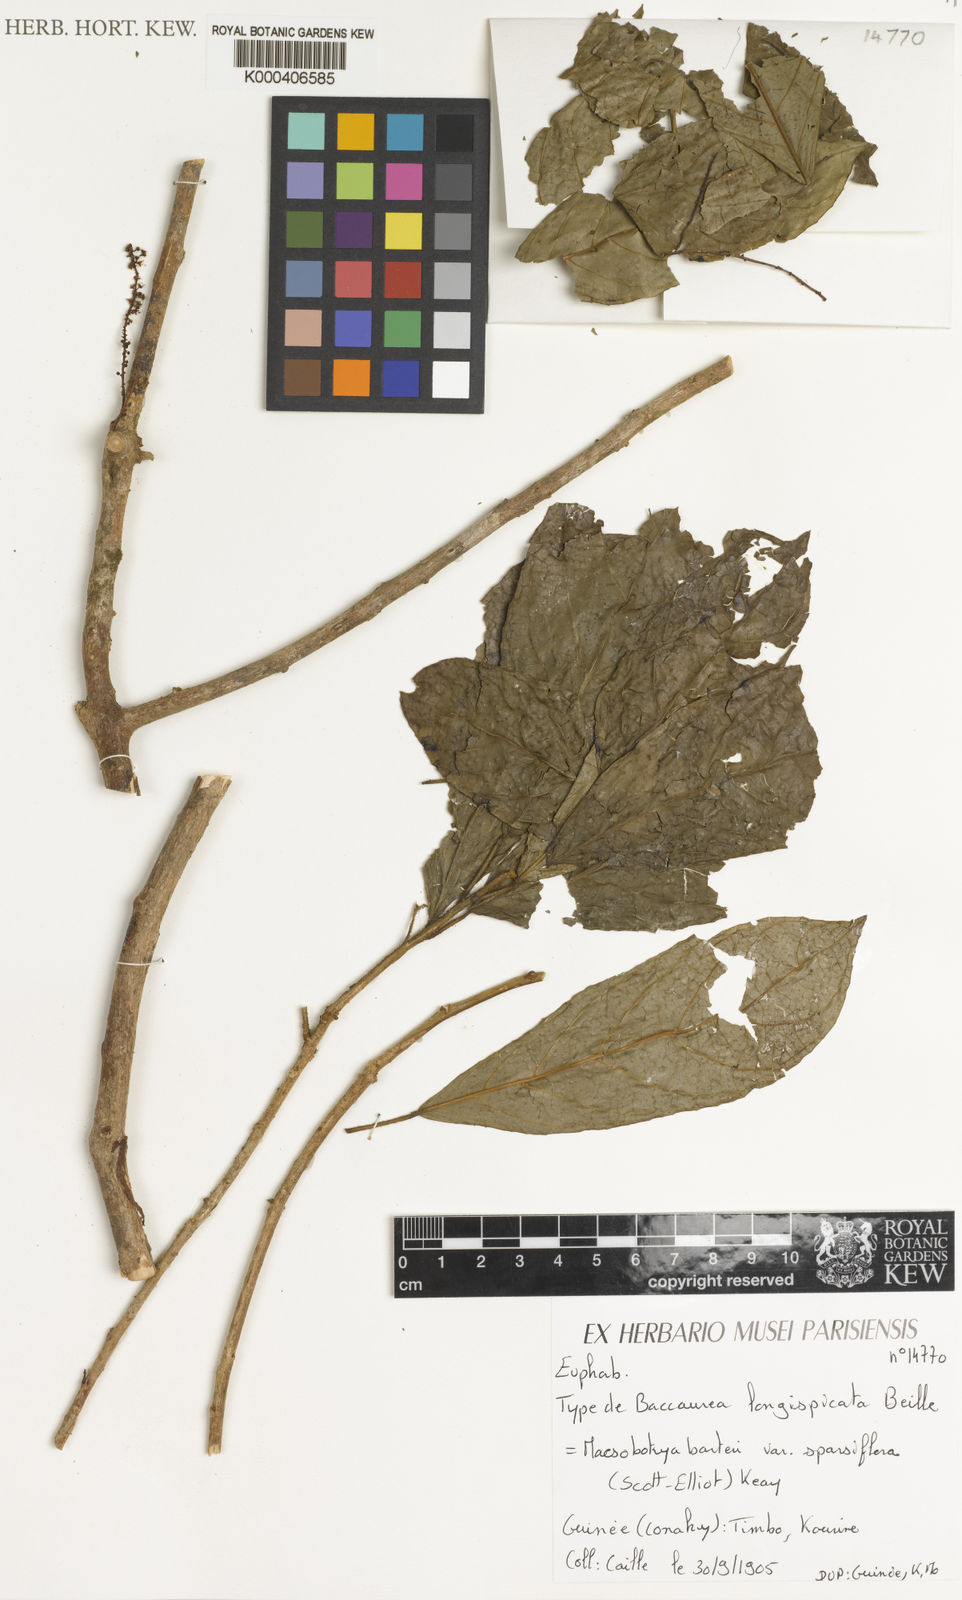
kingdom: Plantae
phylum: Tracheophyta
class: Magnoliopsida
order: Malpighiales
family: Phyllanthaceae
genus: Maesobotrya
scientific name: Maesobotrya barteri
